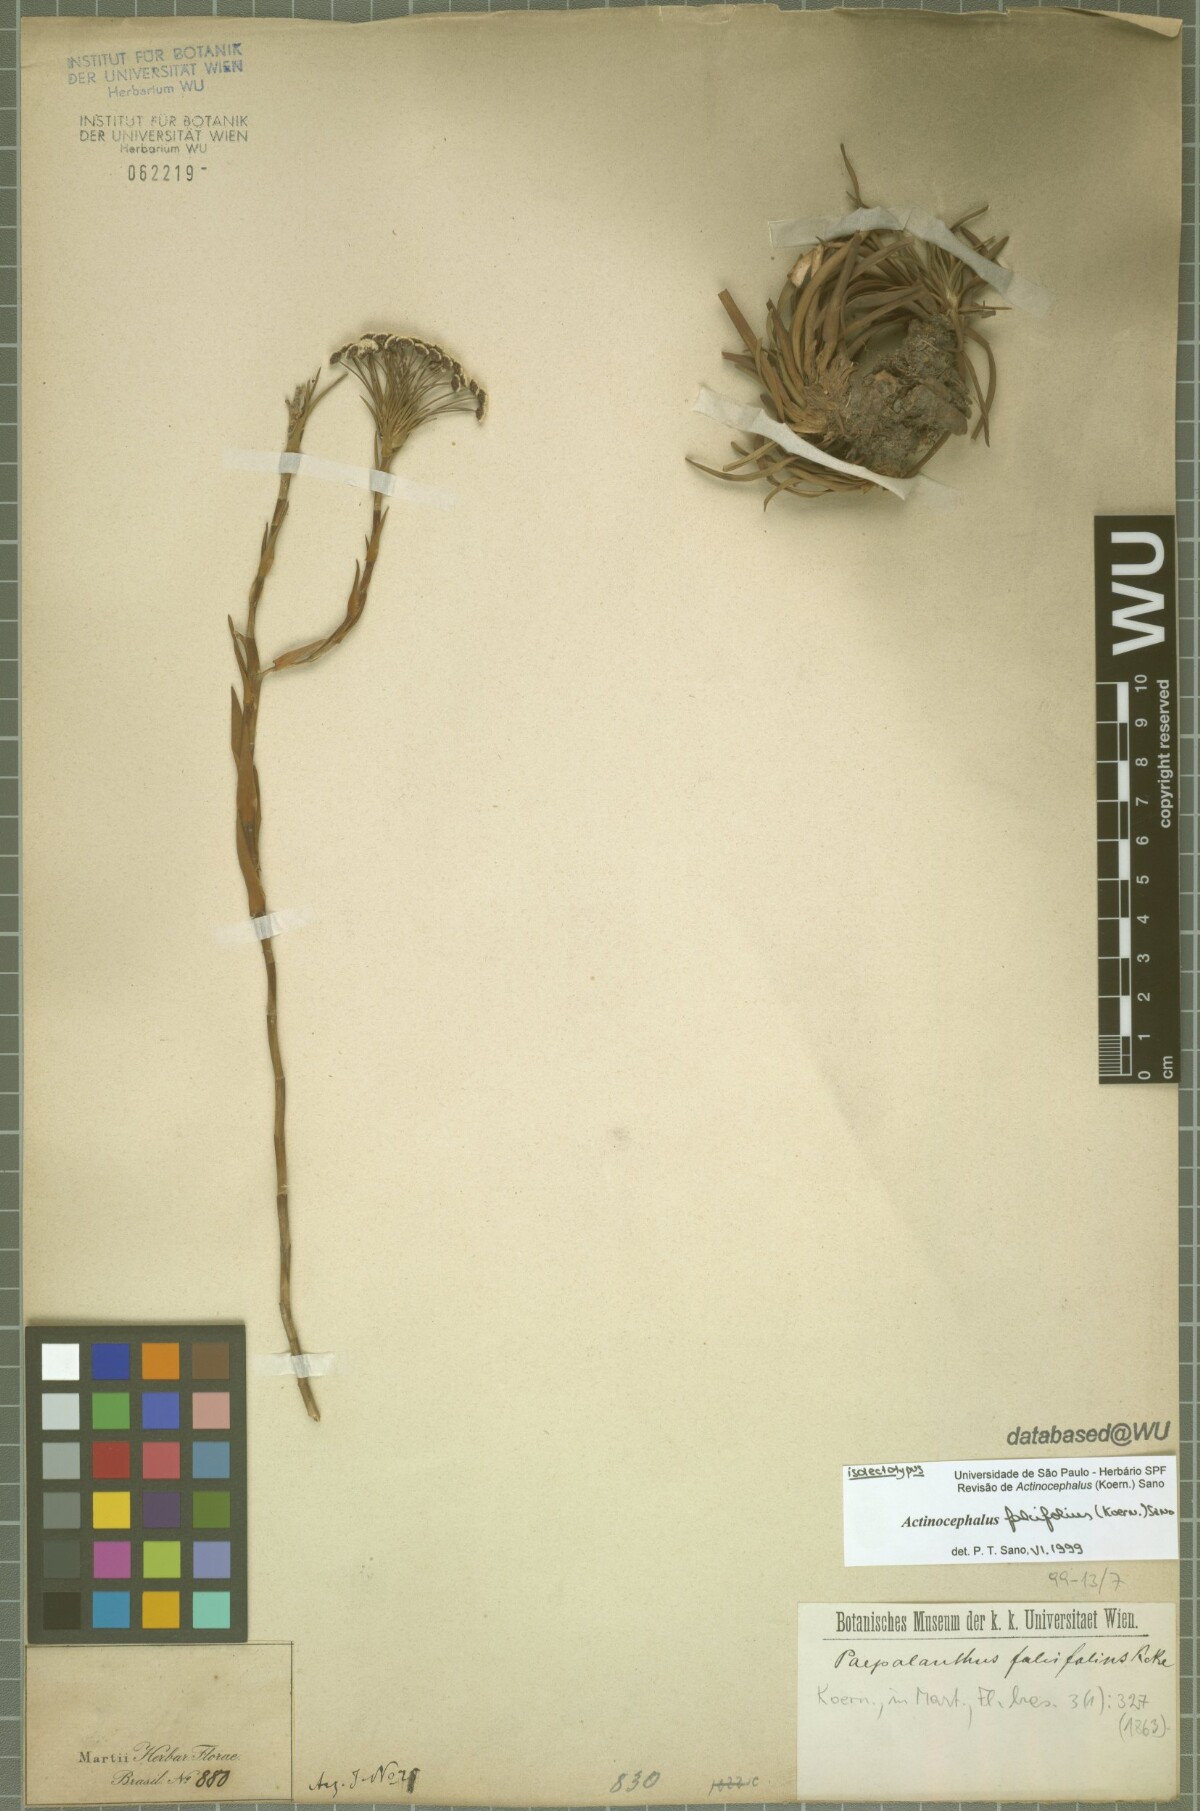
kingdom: Plantae
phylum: Tracheophyta
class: Liliopsida
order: Poales
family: Eriocaulaceae
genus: Paepalanthus
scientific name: Paepalanthus falcifolius
